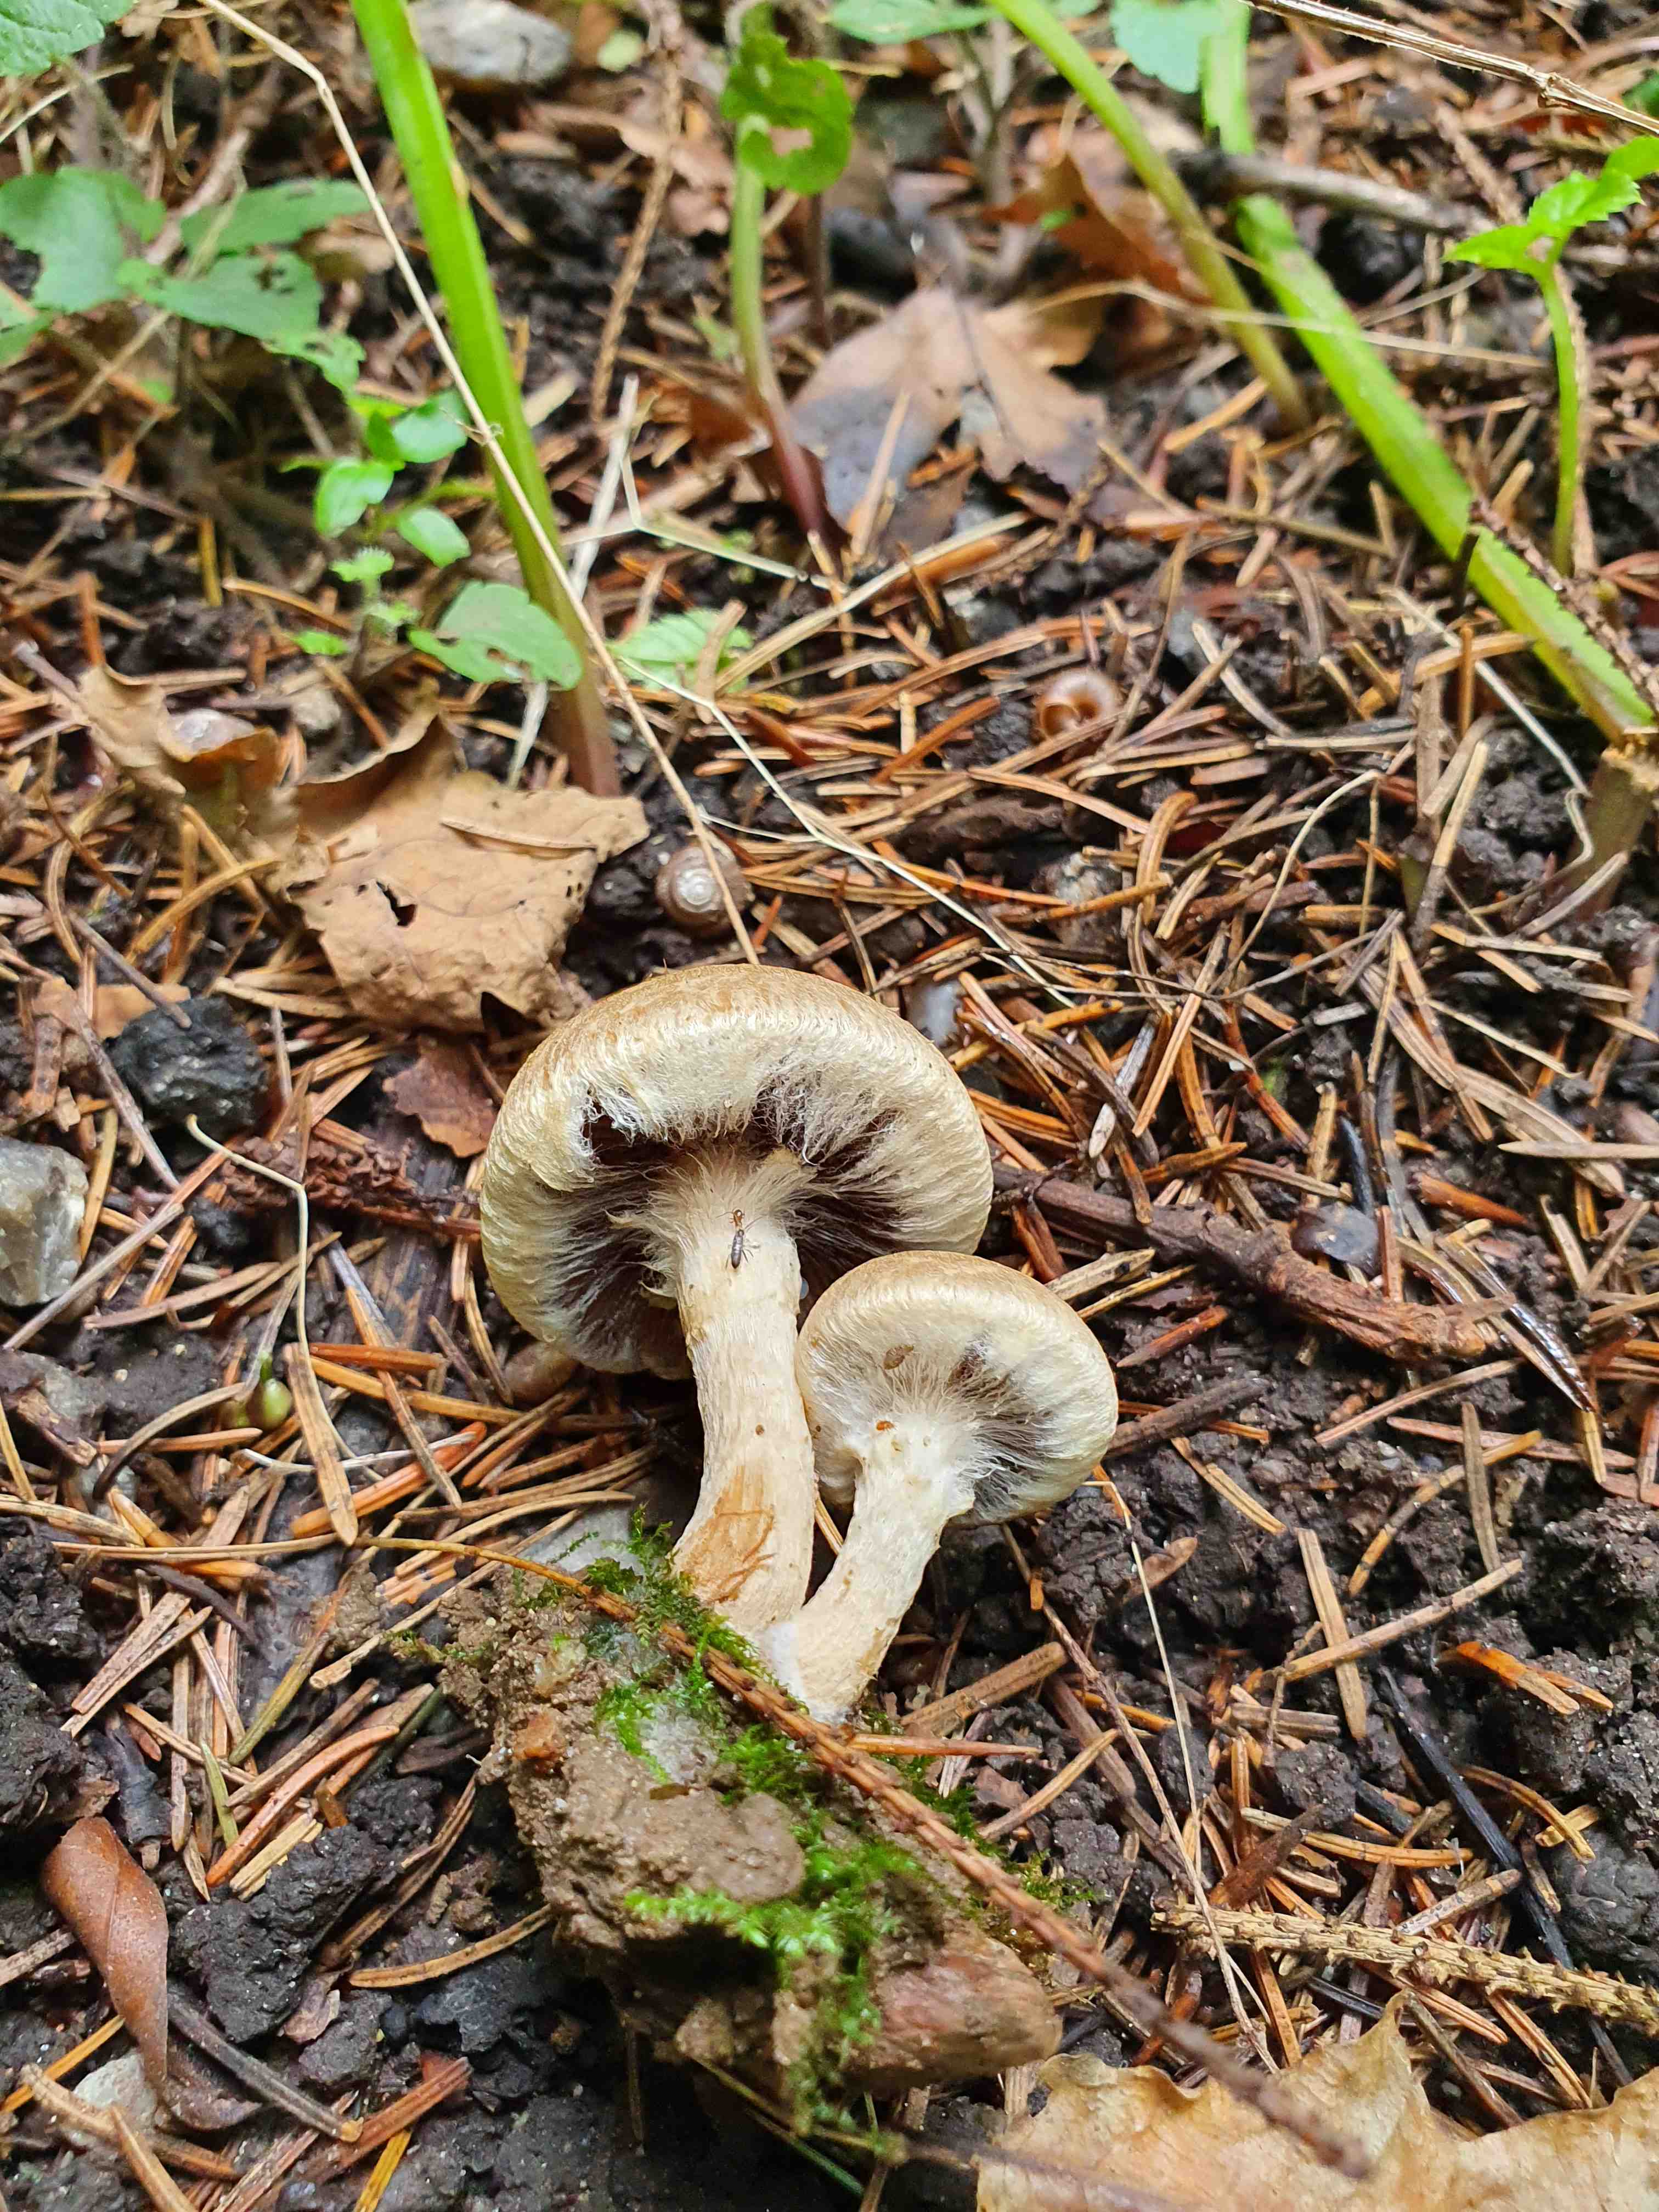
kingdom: Fungi
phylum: Basidiomycota
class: Agaricomycetes
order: Agaricales
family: Psathyrellaceae
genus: Lacrymaria
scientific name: Lacrymaria lacrymabunda
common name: grædende mørkhat
